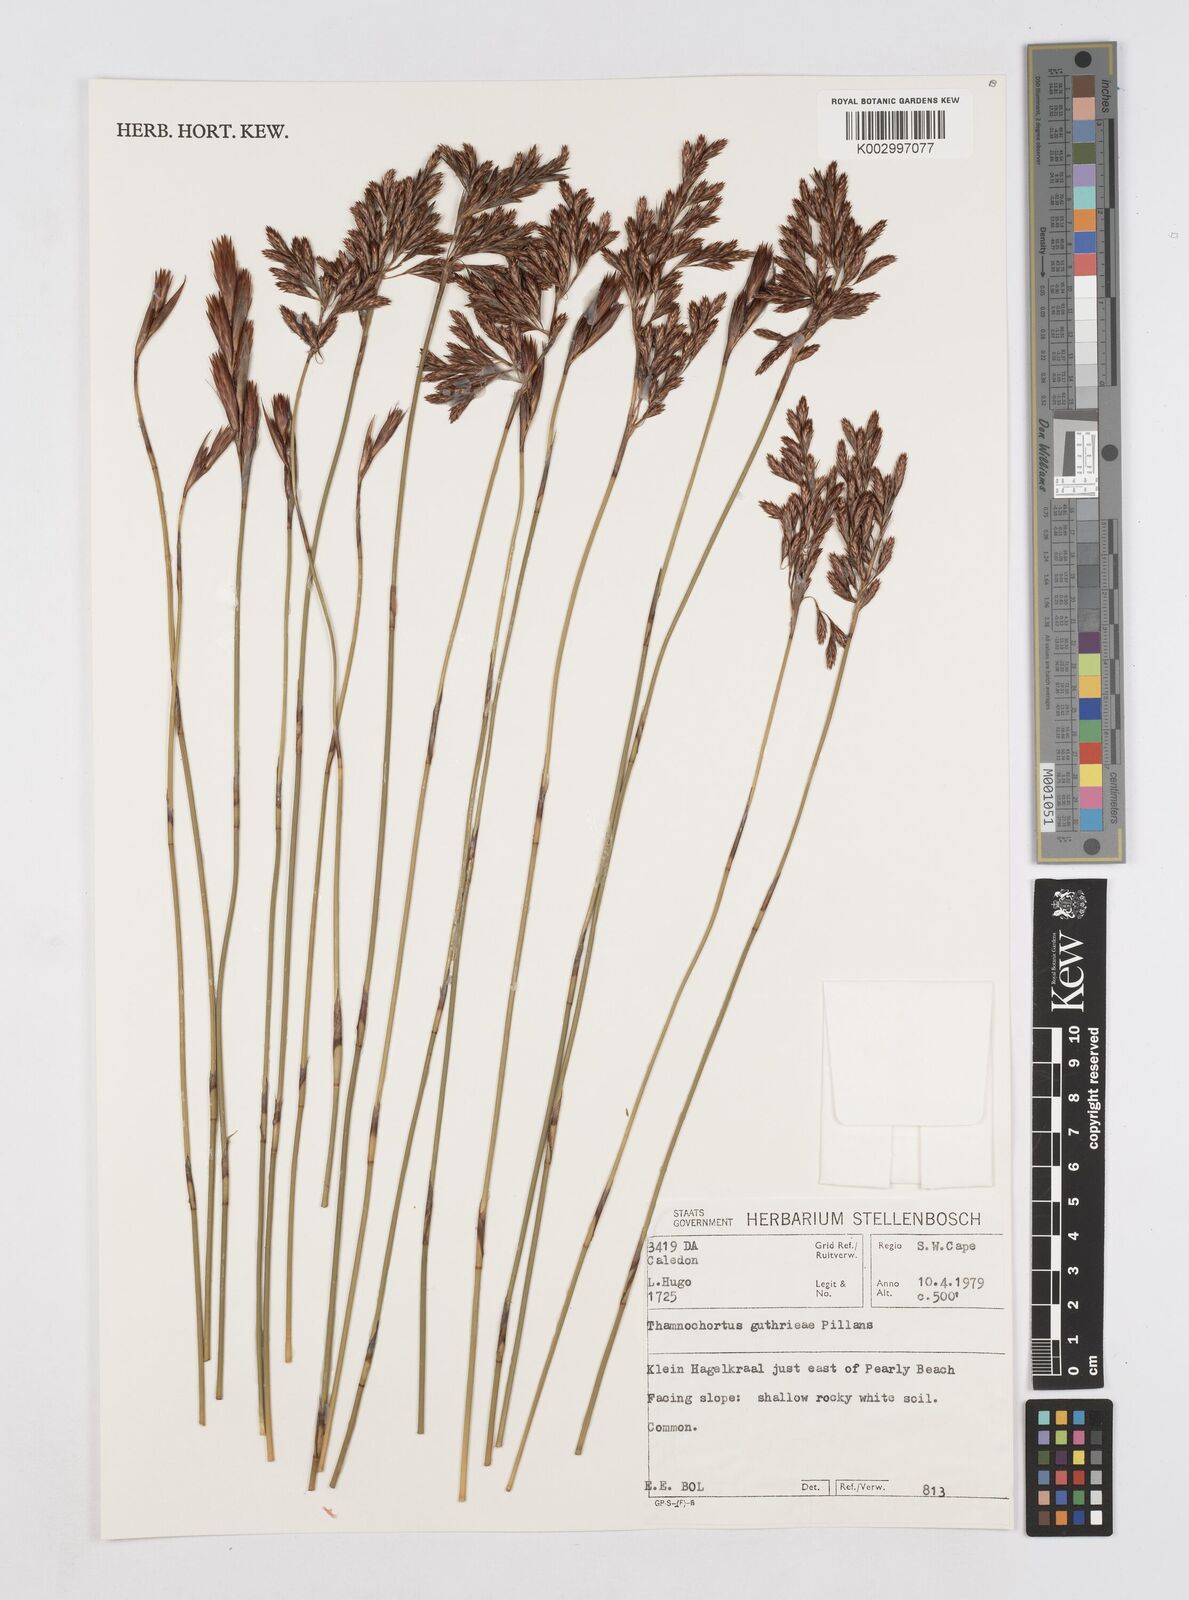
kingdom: Plantae
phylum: Tracheophyta
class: Liliopsida
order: Poales
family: Restionaceae
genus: Thamnochortus
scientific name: Thamnochortus guthrieae
